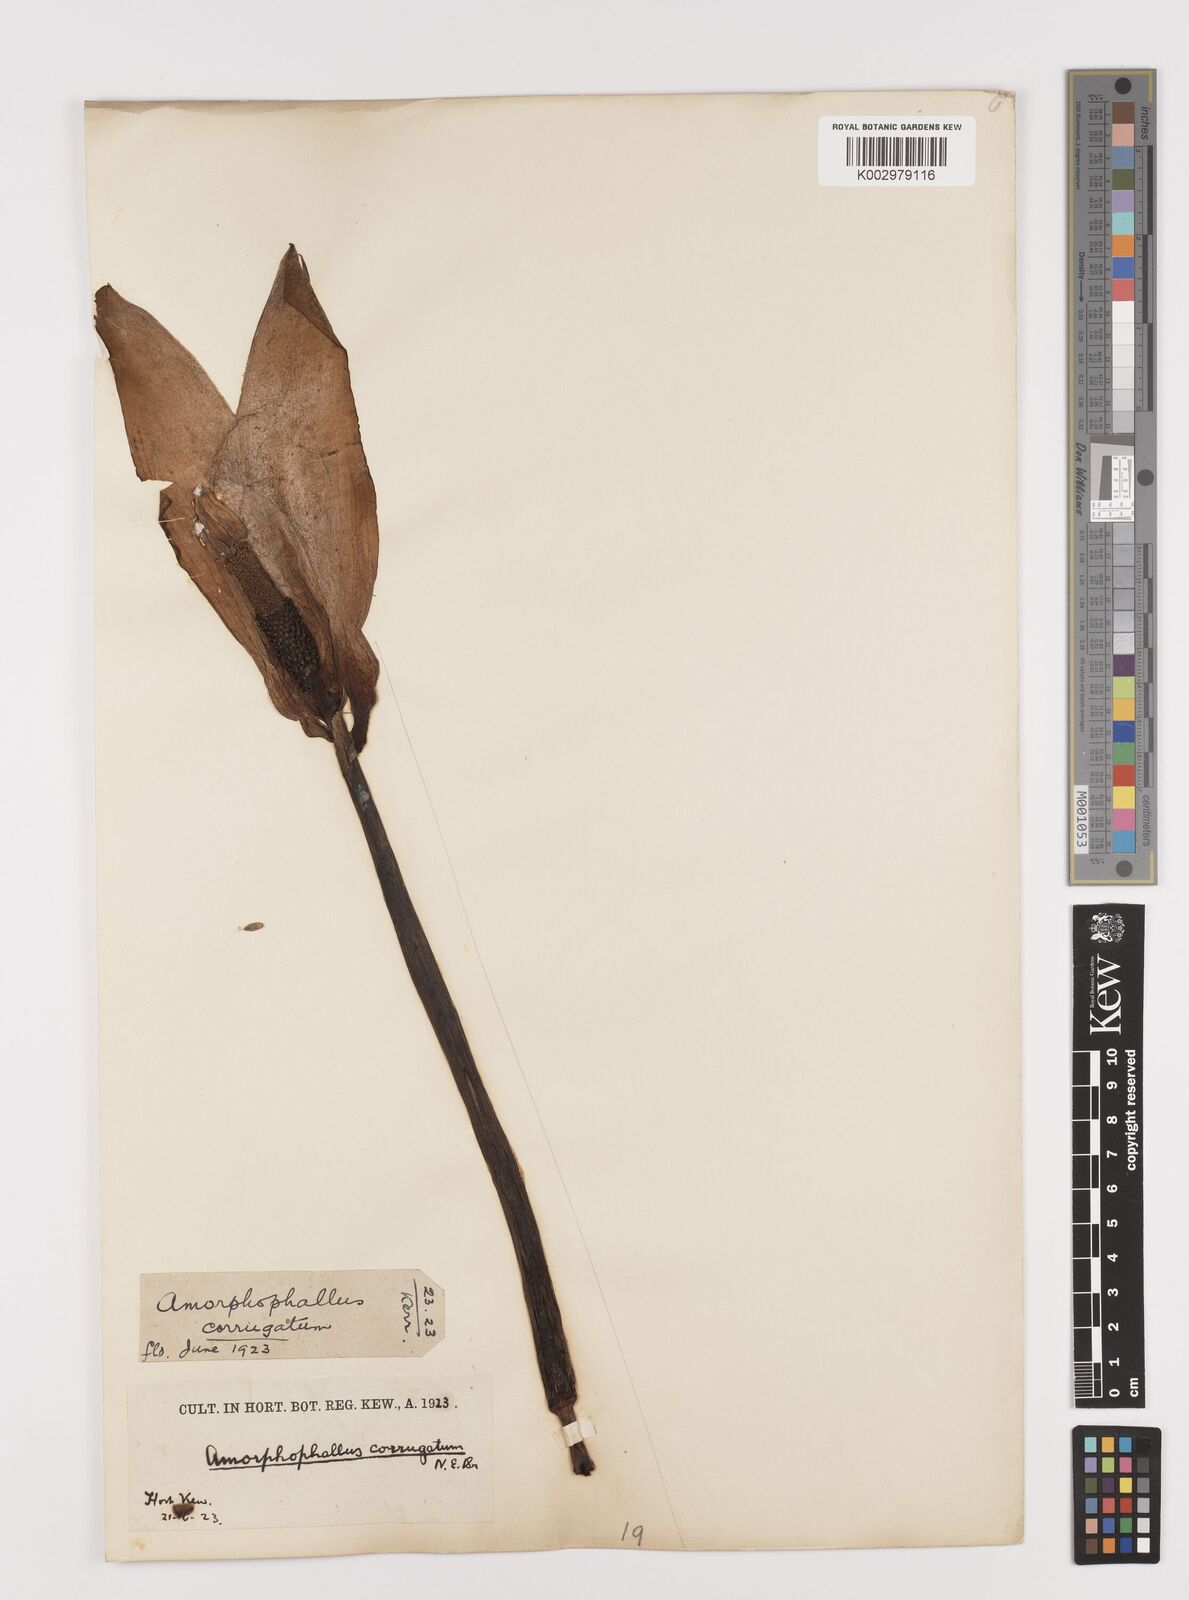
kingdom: Plantae
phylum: Tracheophyta
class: Liliopsida
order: Alismatales
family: Araceae
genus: Amorphophallus
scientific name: Amorphophallus corrugatus
